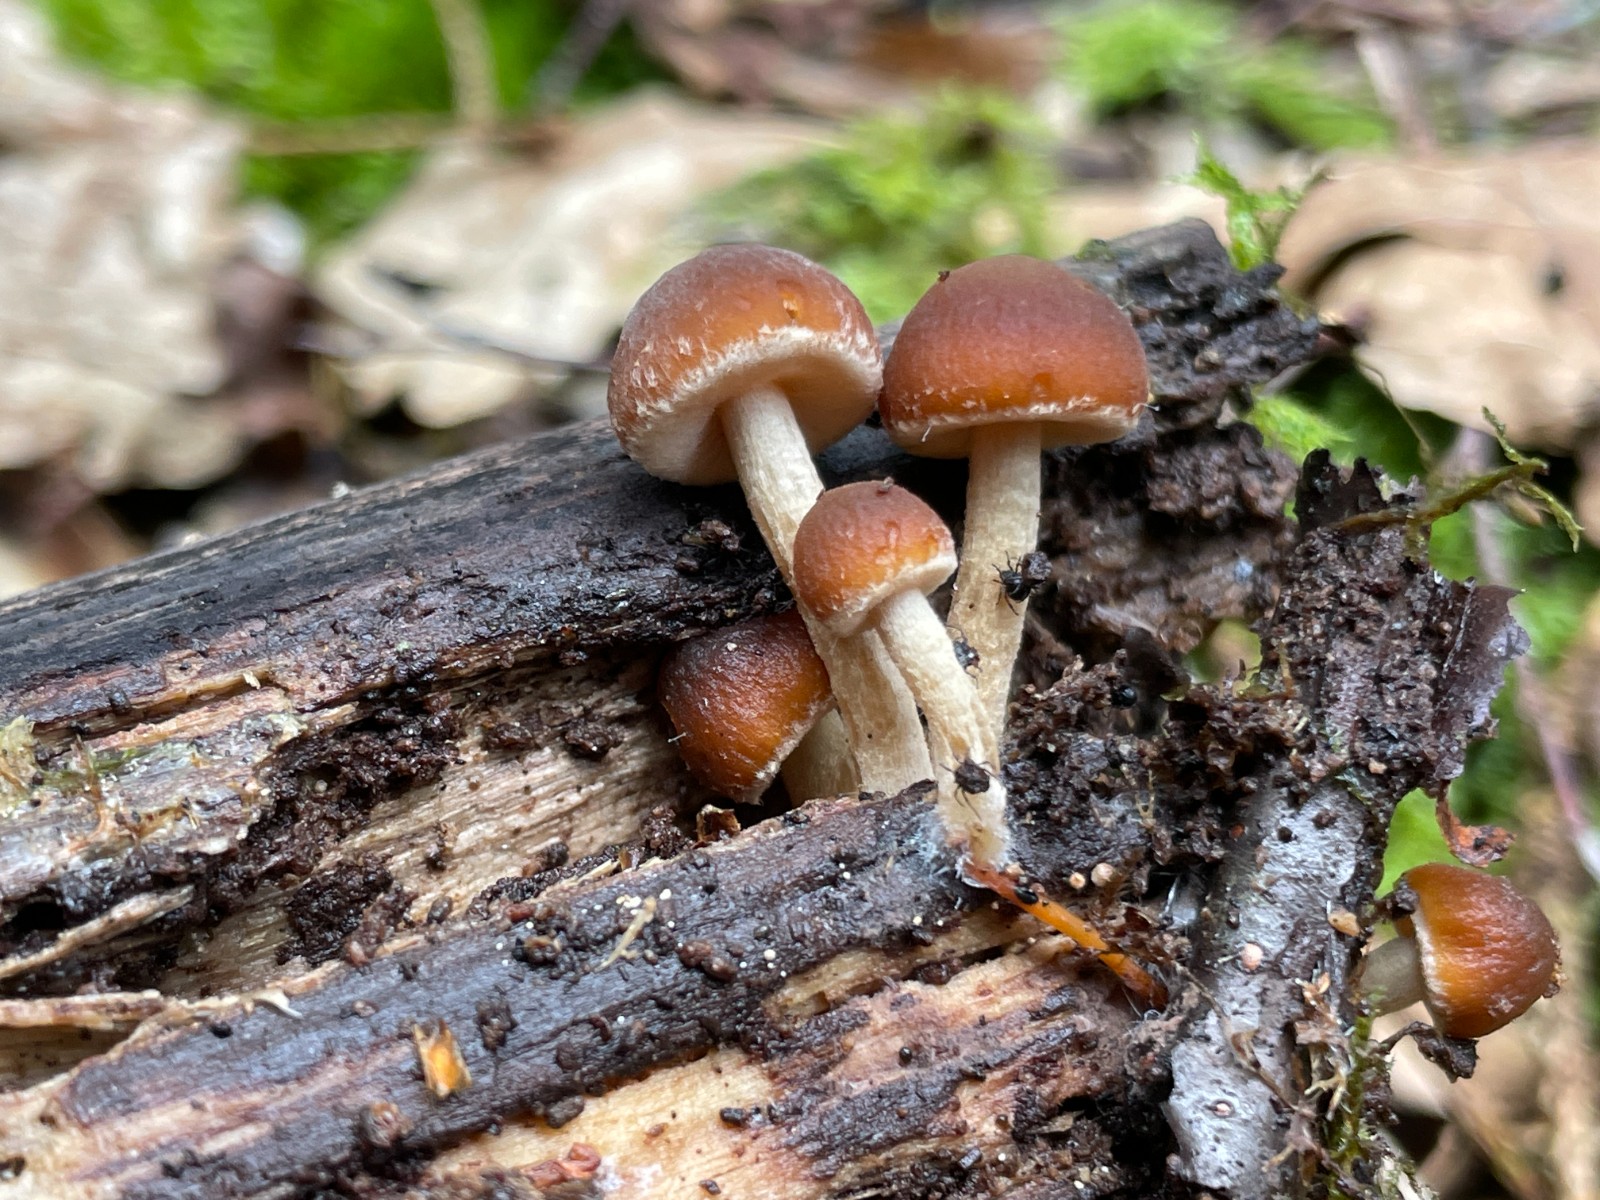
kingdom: Fungi
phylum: Basidiomycota
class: Agaricomycetes
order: Agaricales
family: Psathyrellaceae
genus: Psathyrella
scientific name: Psathyrella
